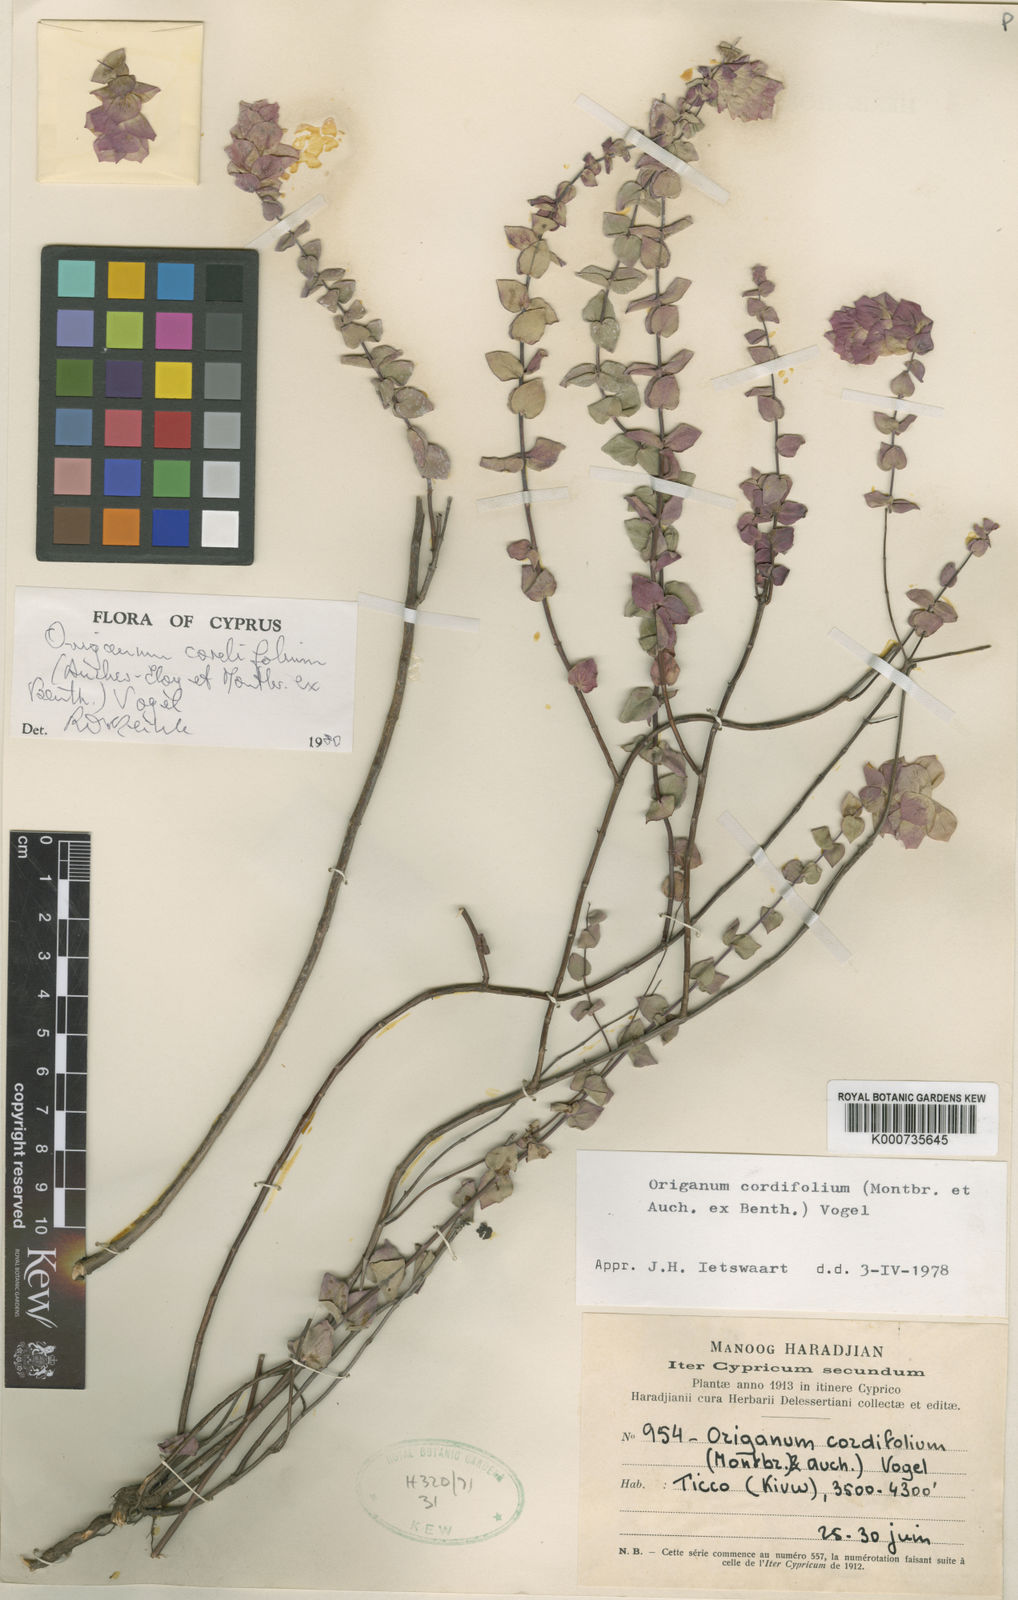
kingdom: Plantae
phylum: Tracheophyta
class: Magnoliopsida
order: Lamiales
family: Lamiaceae
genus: Origanum
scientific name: Origanum cordifolium
